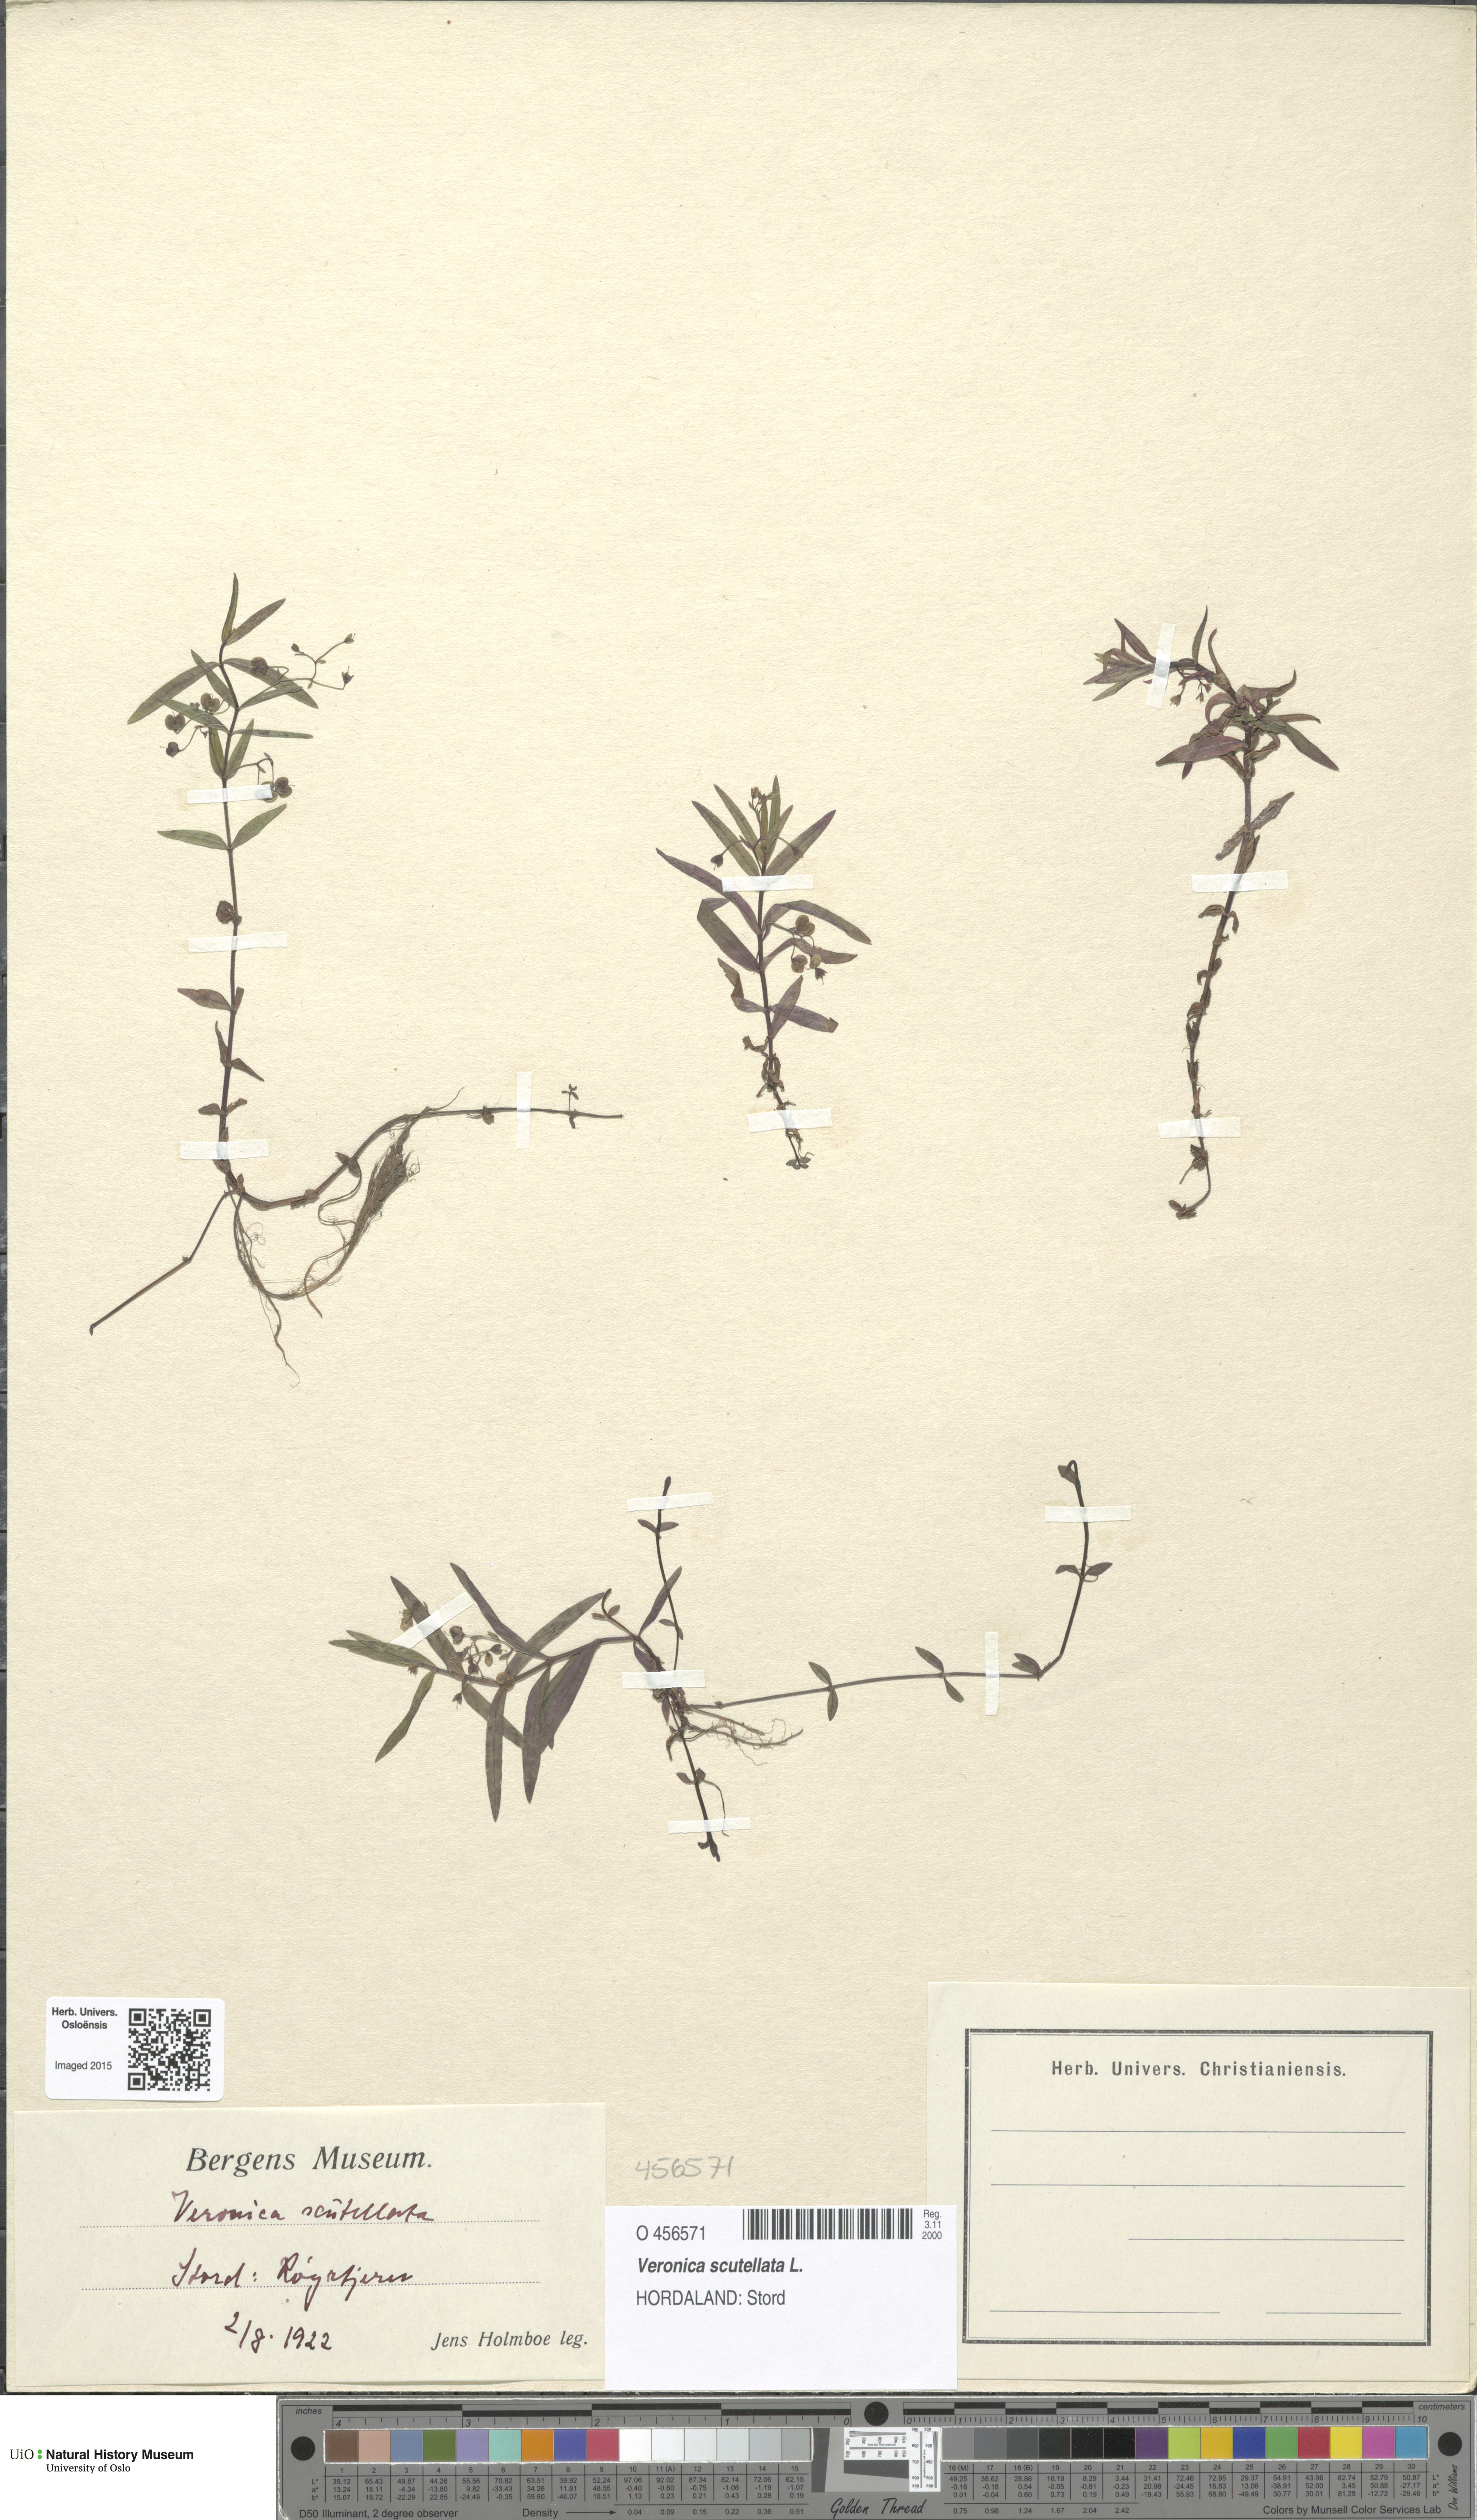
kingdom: Plantae
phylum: Tracheophyta
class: Magnoliopsida
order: Lamiales
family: Plantaginaceae
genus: Veronica
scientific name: Veronica scutellata
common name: Marsh speedwell
